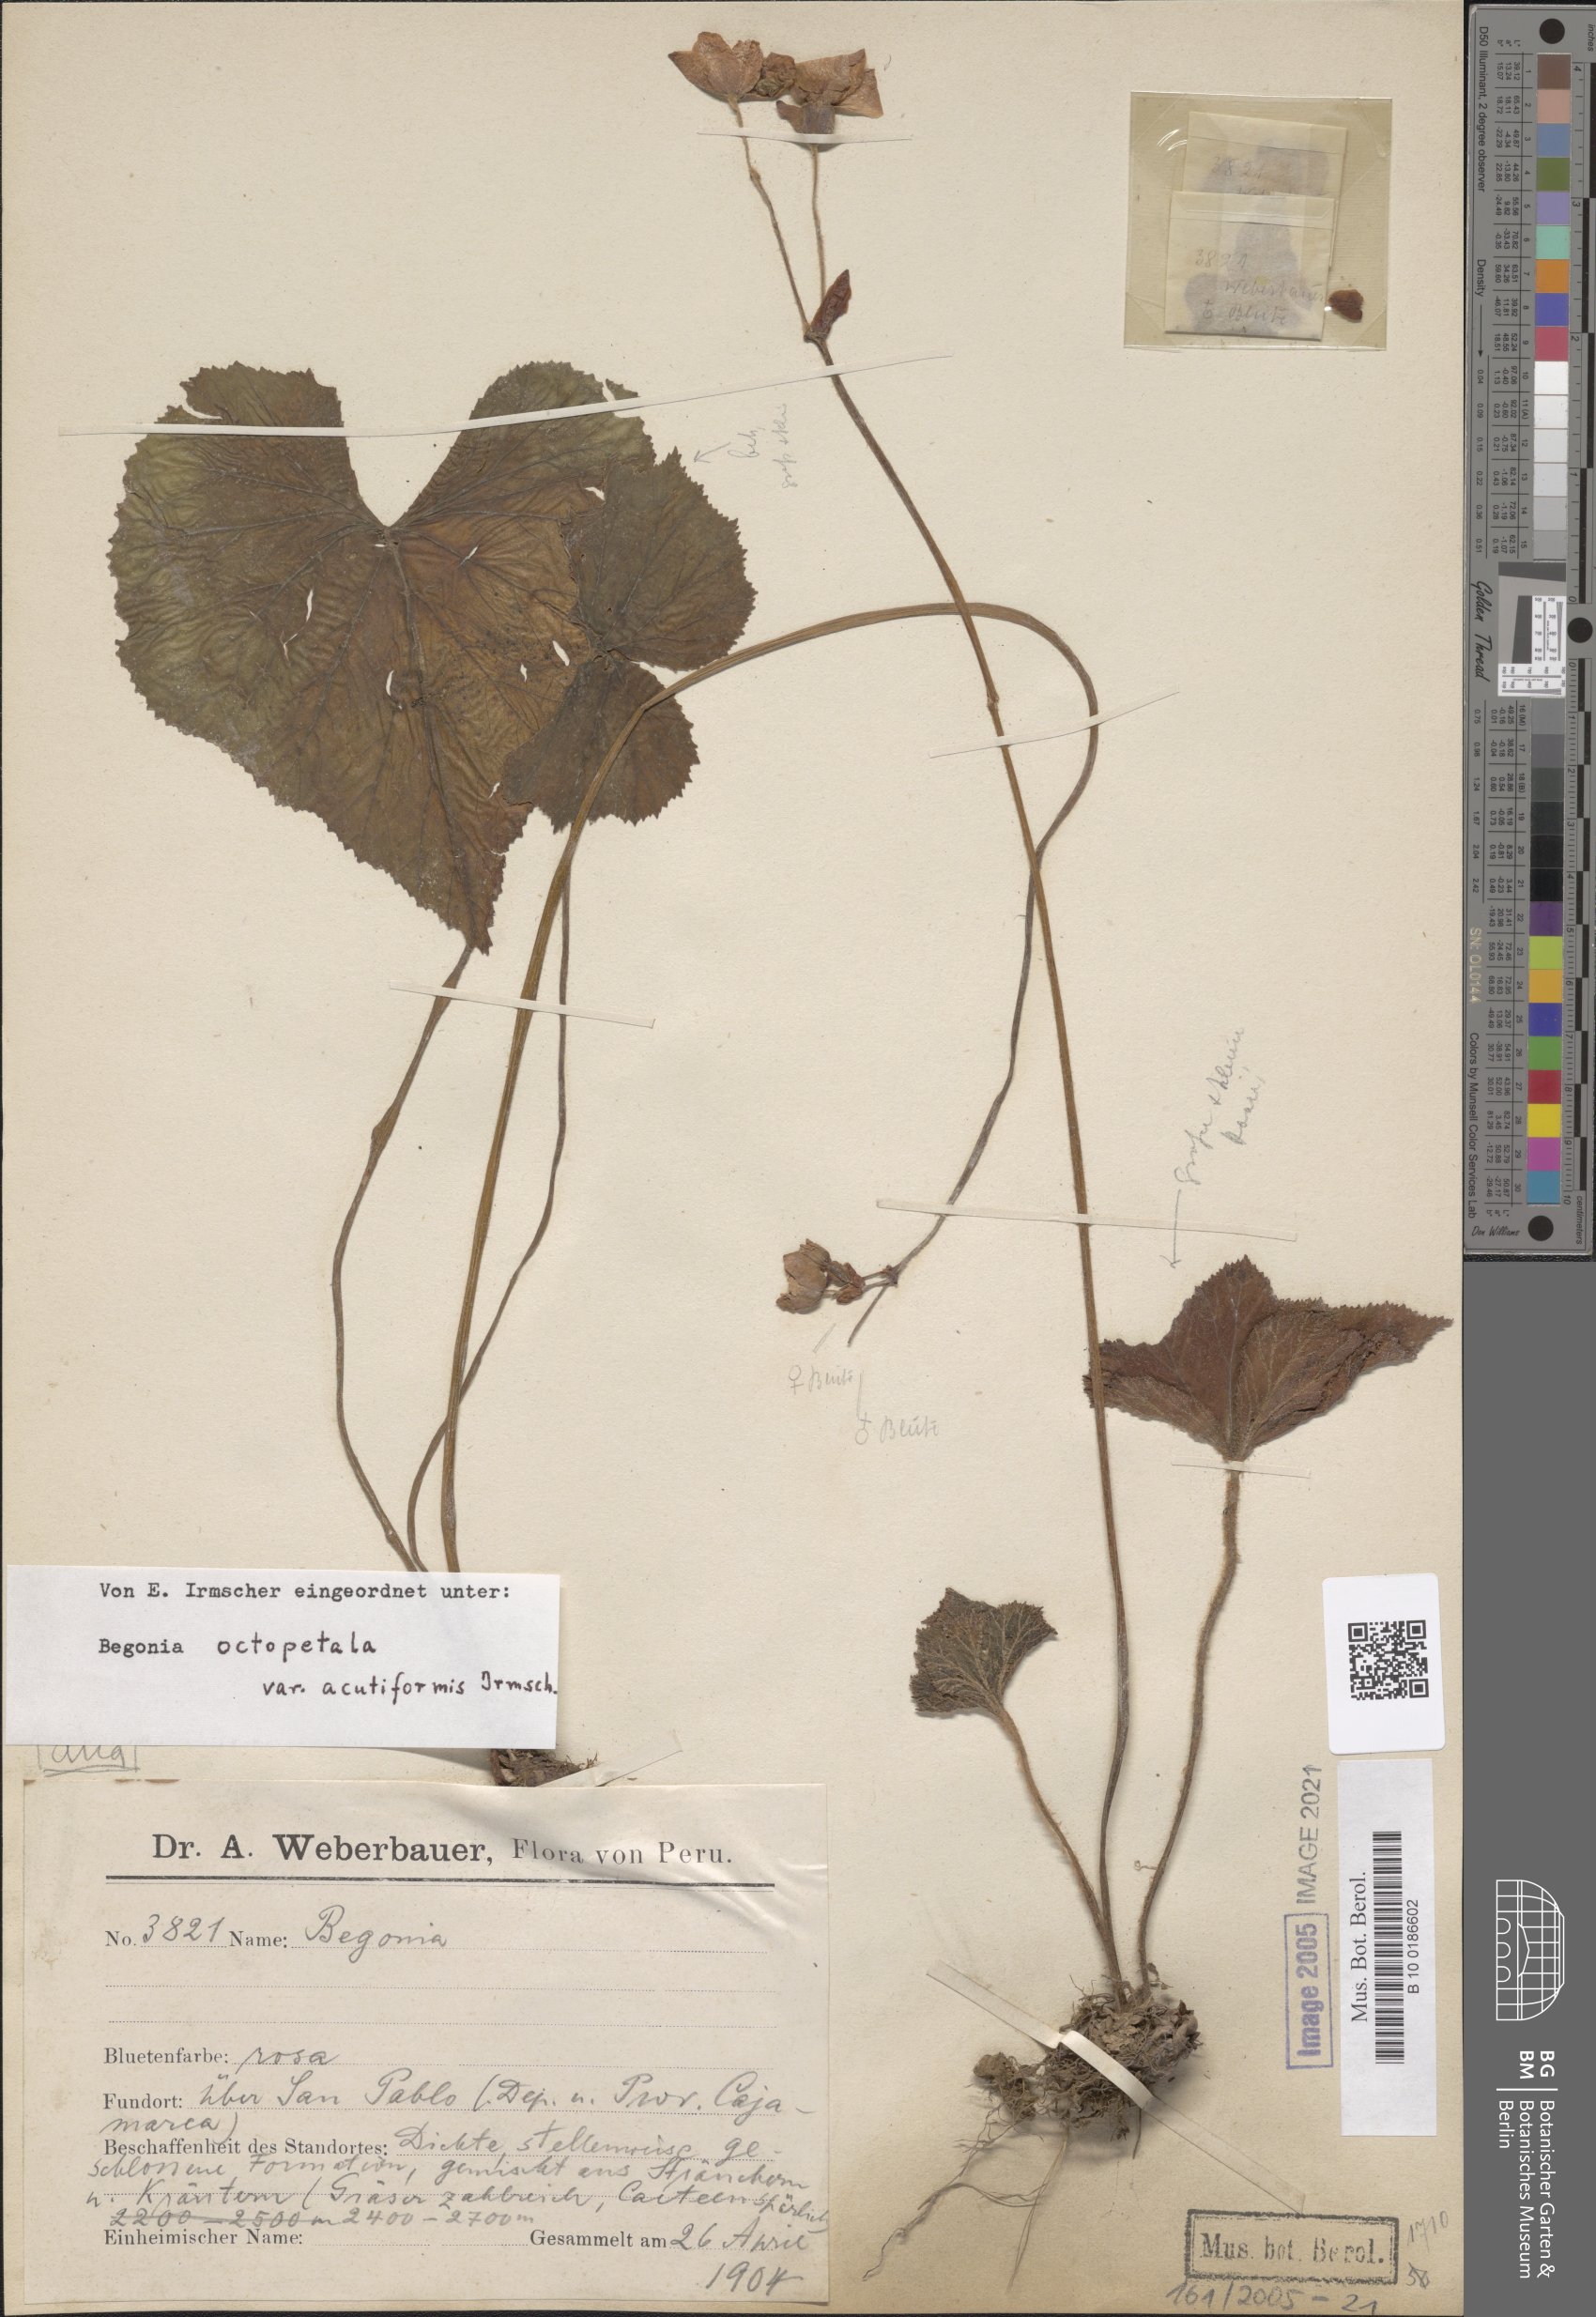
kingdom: Plantae
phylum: Tracheophyta
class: Magnoliopsida
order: Cucurbitales
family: Begoniaceae
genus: Begonia
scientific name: Begonia octopetala
